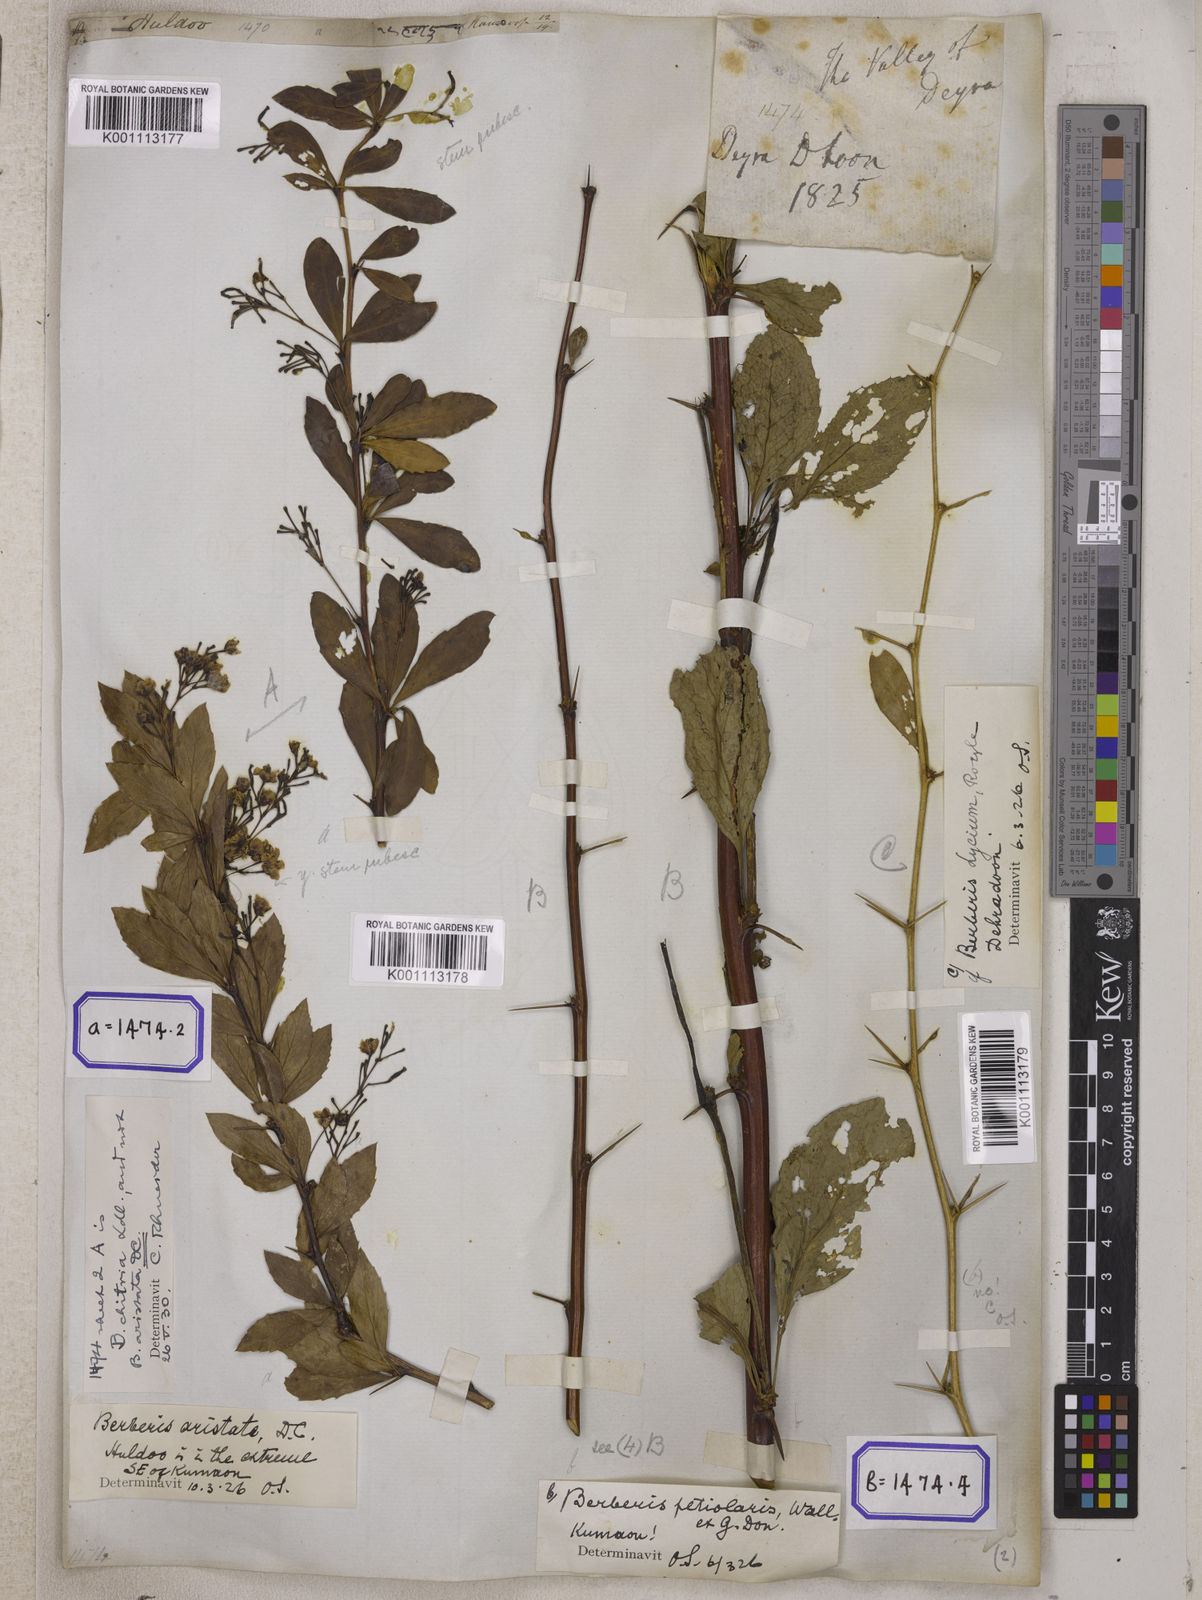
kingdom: Plantae
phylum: Tracheophyta
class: Magnoliopsida
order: Ranunculales
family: Berberidaceae
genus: Berberis
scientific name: Berberis aristata
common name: Indian barberry
